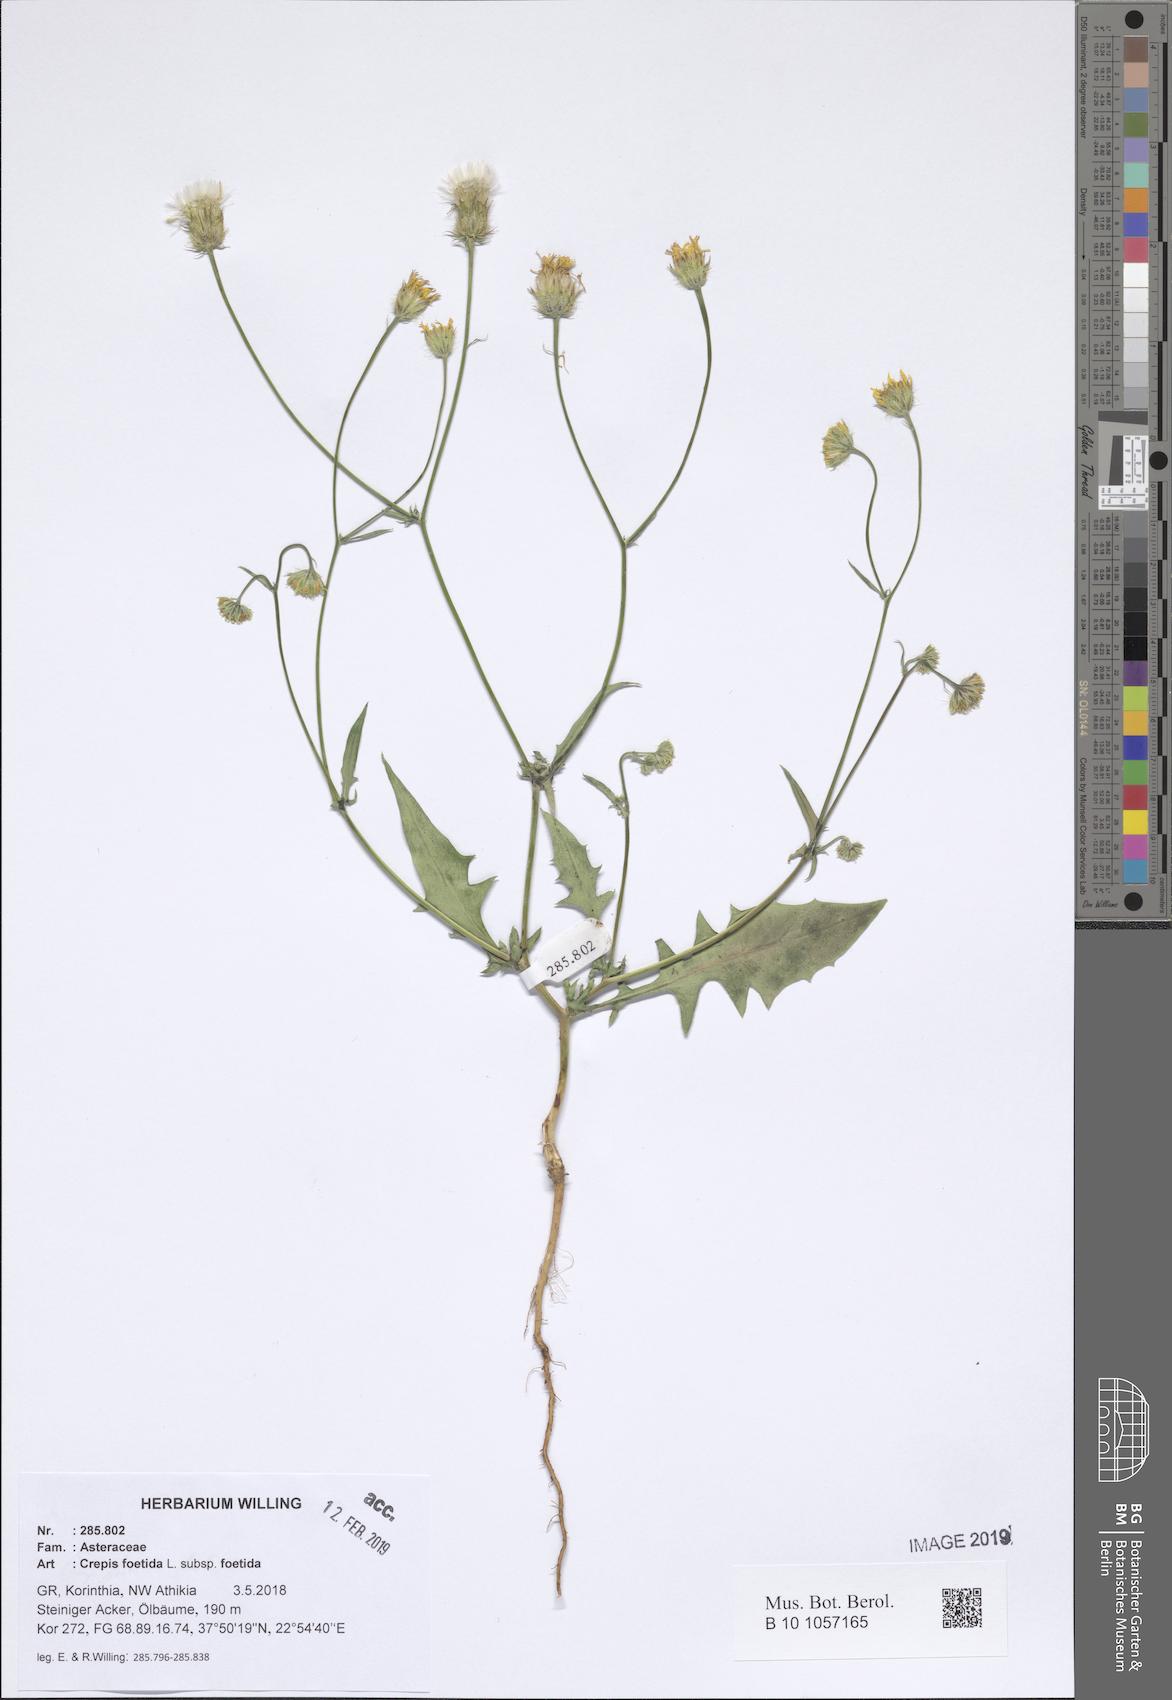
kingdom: Plantae
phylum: Tracheophyta
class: Magnoliopsida
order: Asterales
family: Asteraceae
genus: Crepis
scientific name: Crepis foetida
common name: Stinking hawk's-beard
